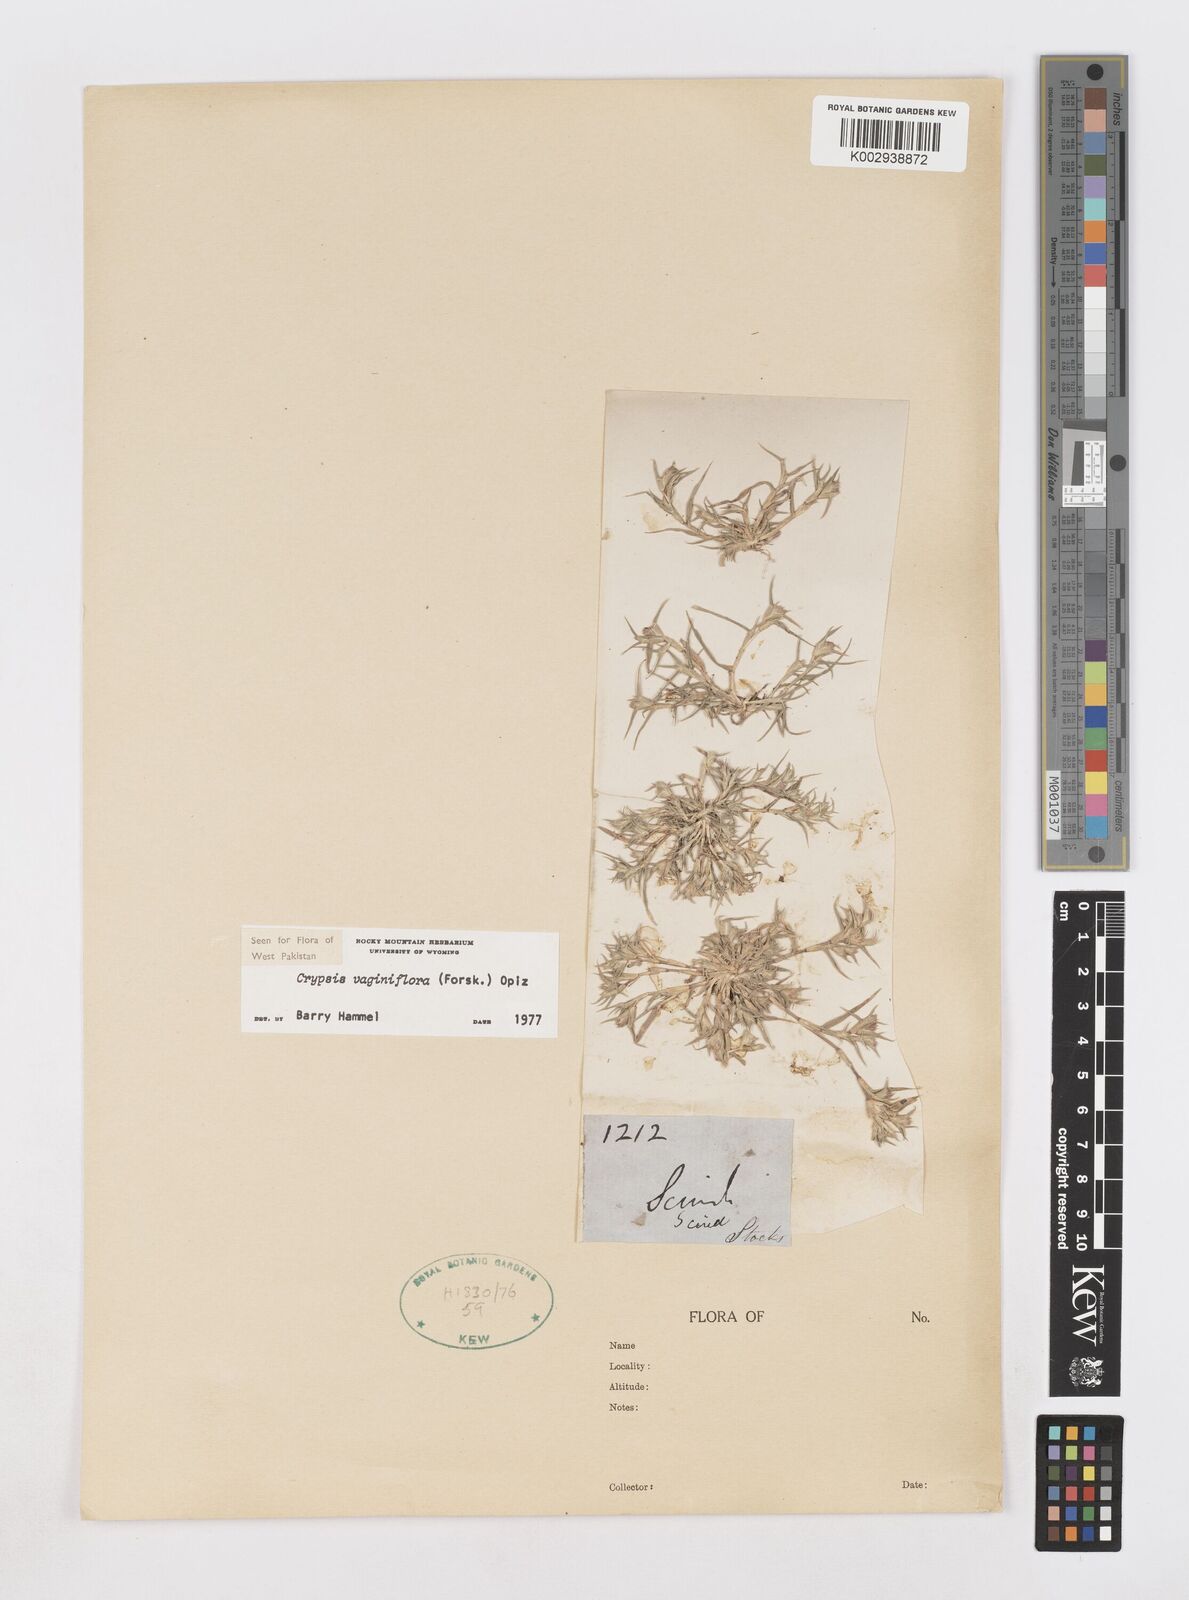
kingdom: Plantae
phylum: Tracheophyta
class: Liliopsida
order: Poales
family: Poaceae
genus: Sporobolus
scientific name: Sporobolus niliacus
